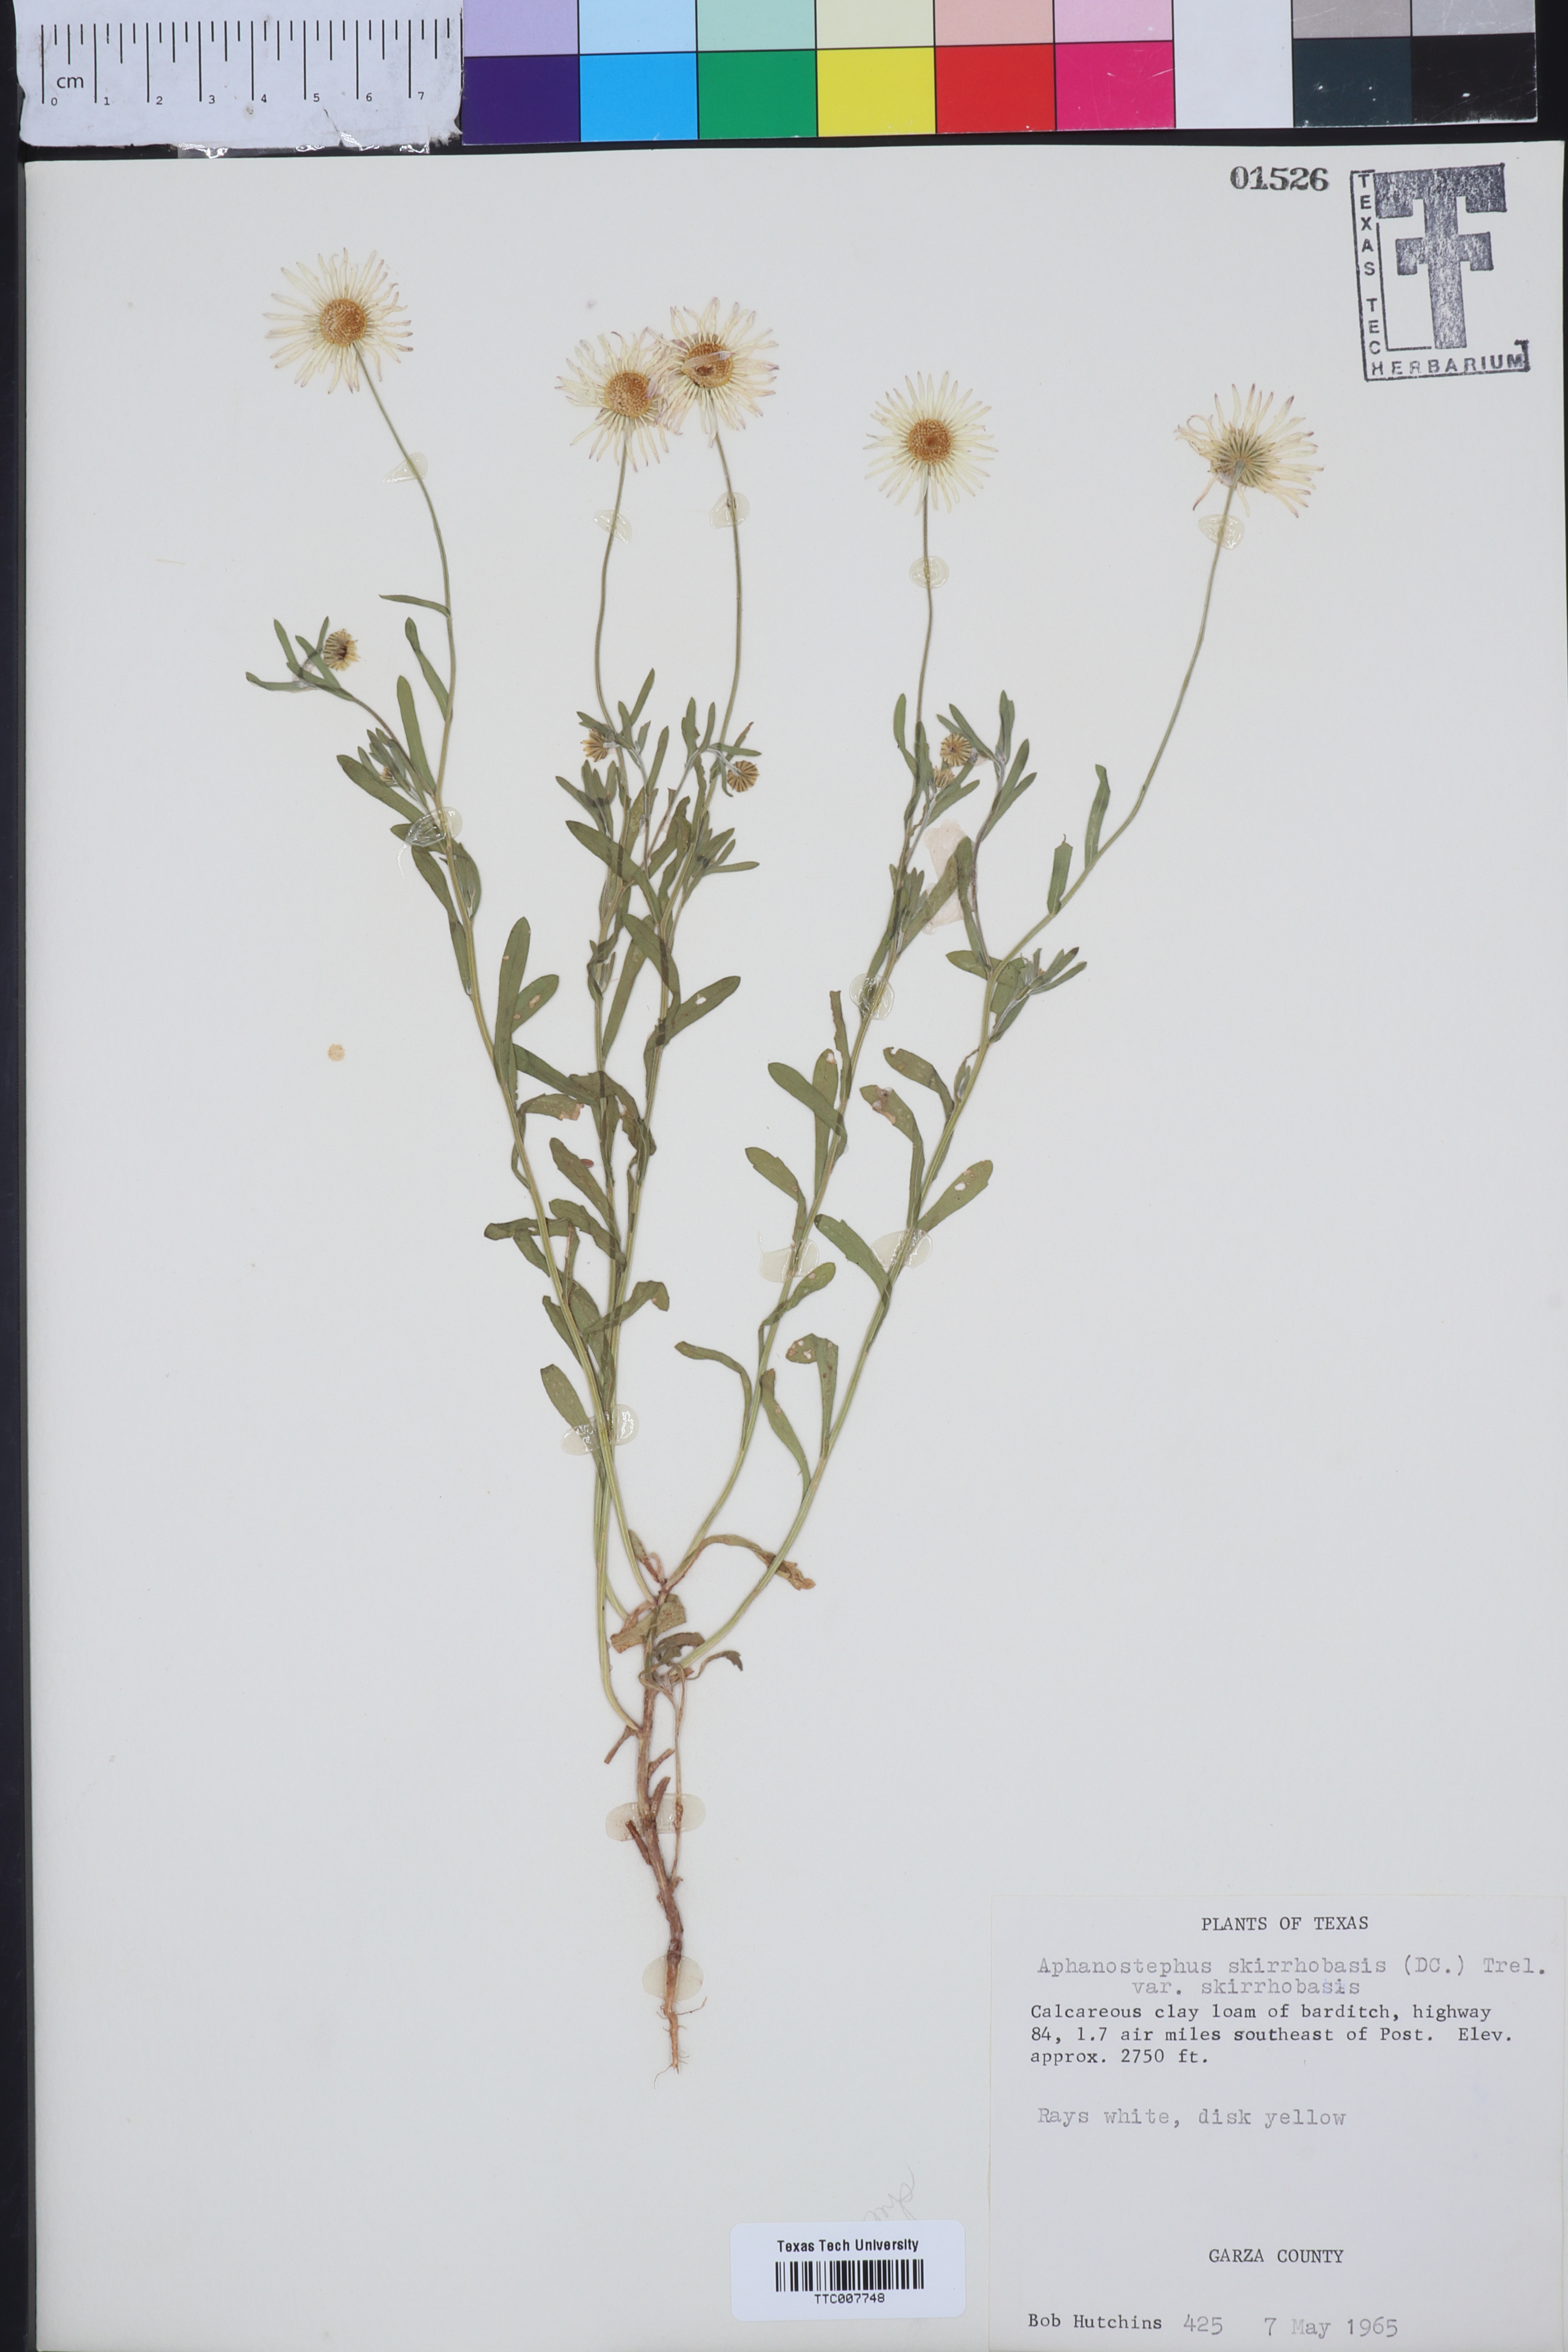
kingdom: Plantae
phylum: Tracheophyta
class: Magnoliopsida
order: Asterales
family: Asteraceae
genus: Aphanostephus
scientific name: Aphanostephus skirrhobasis
